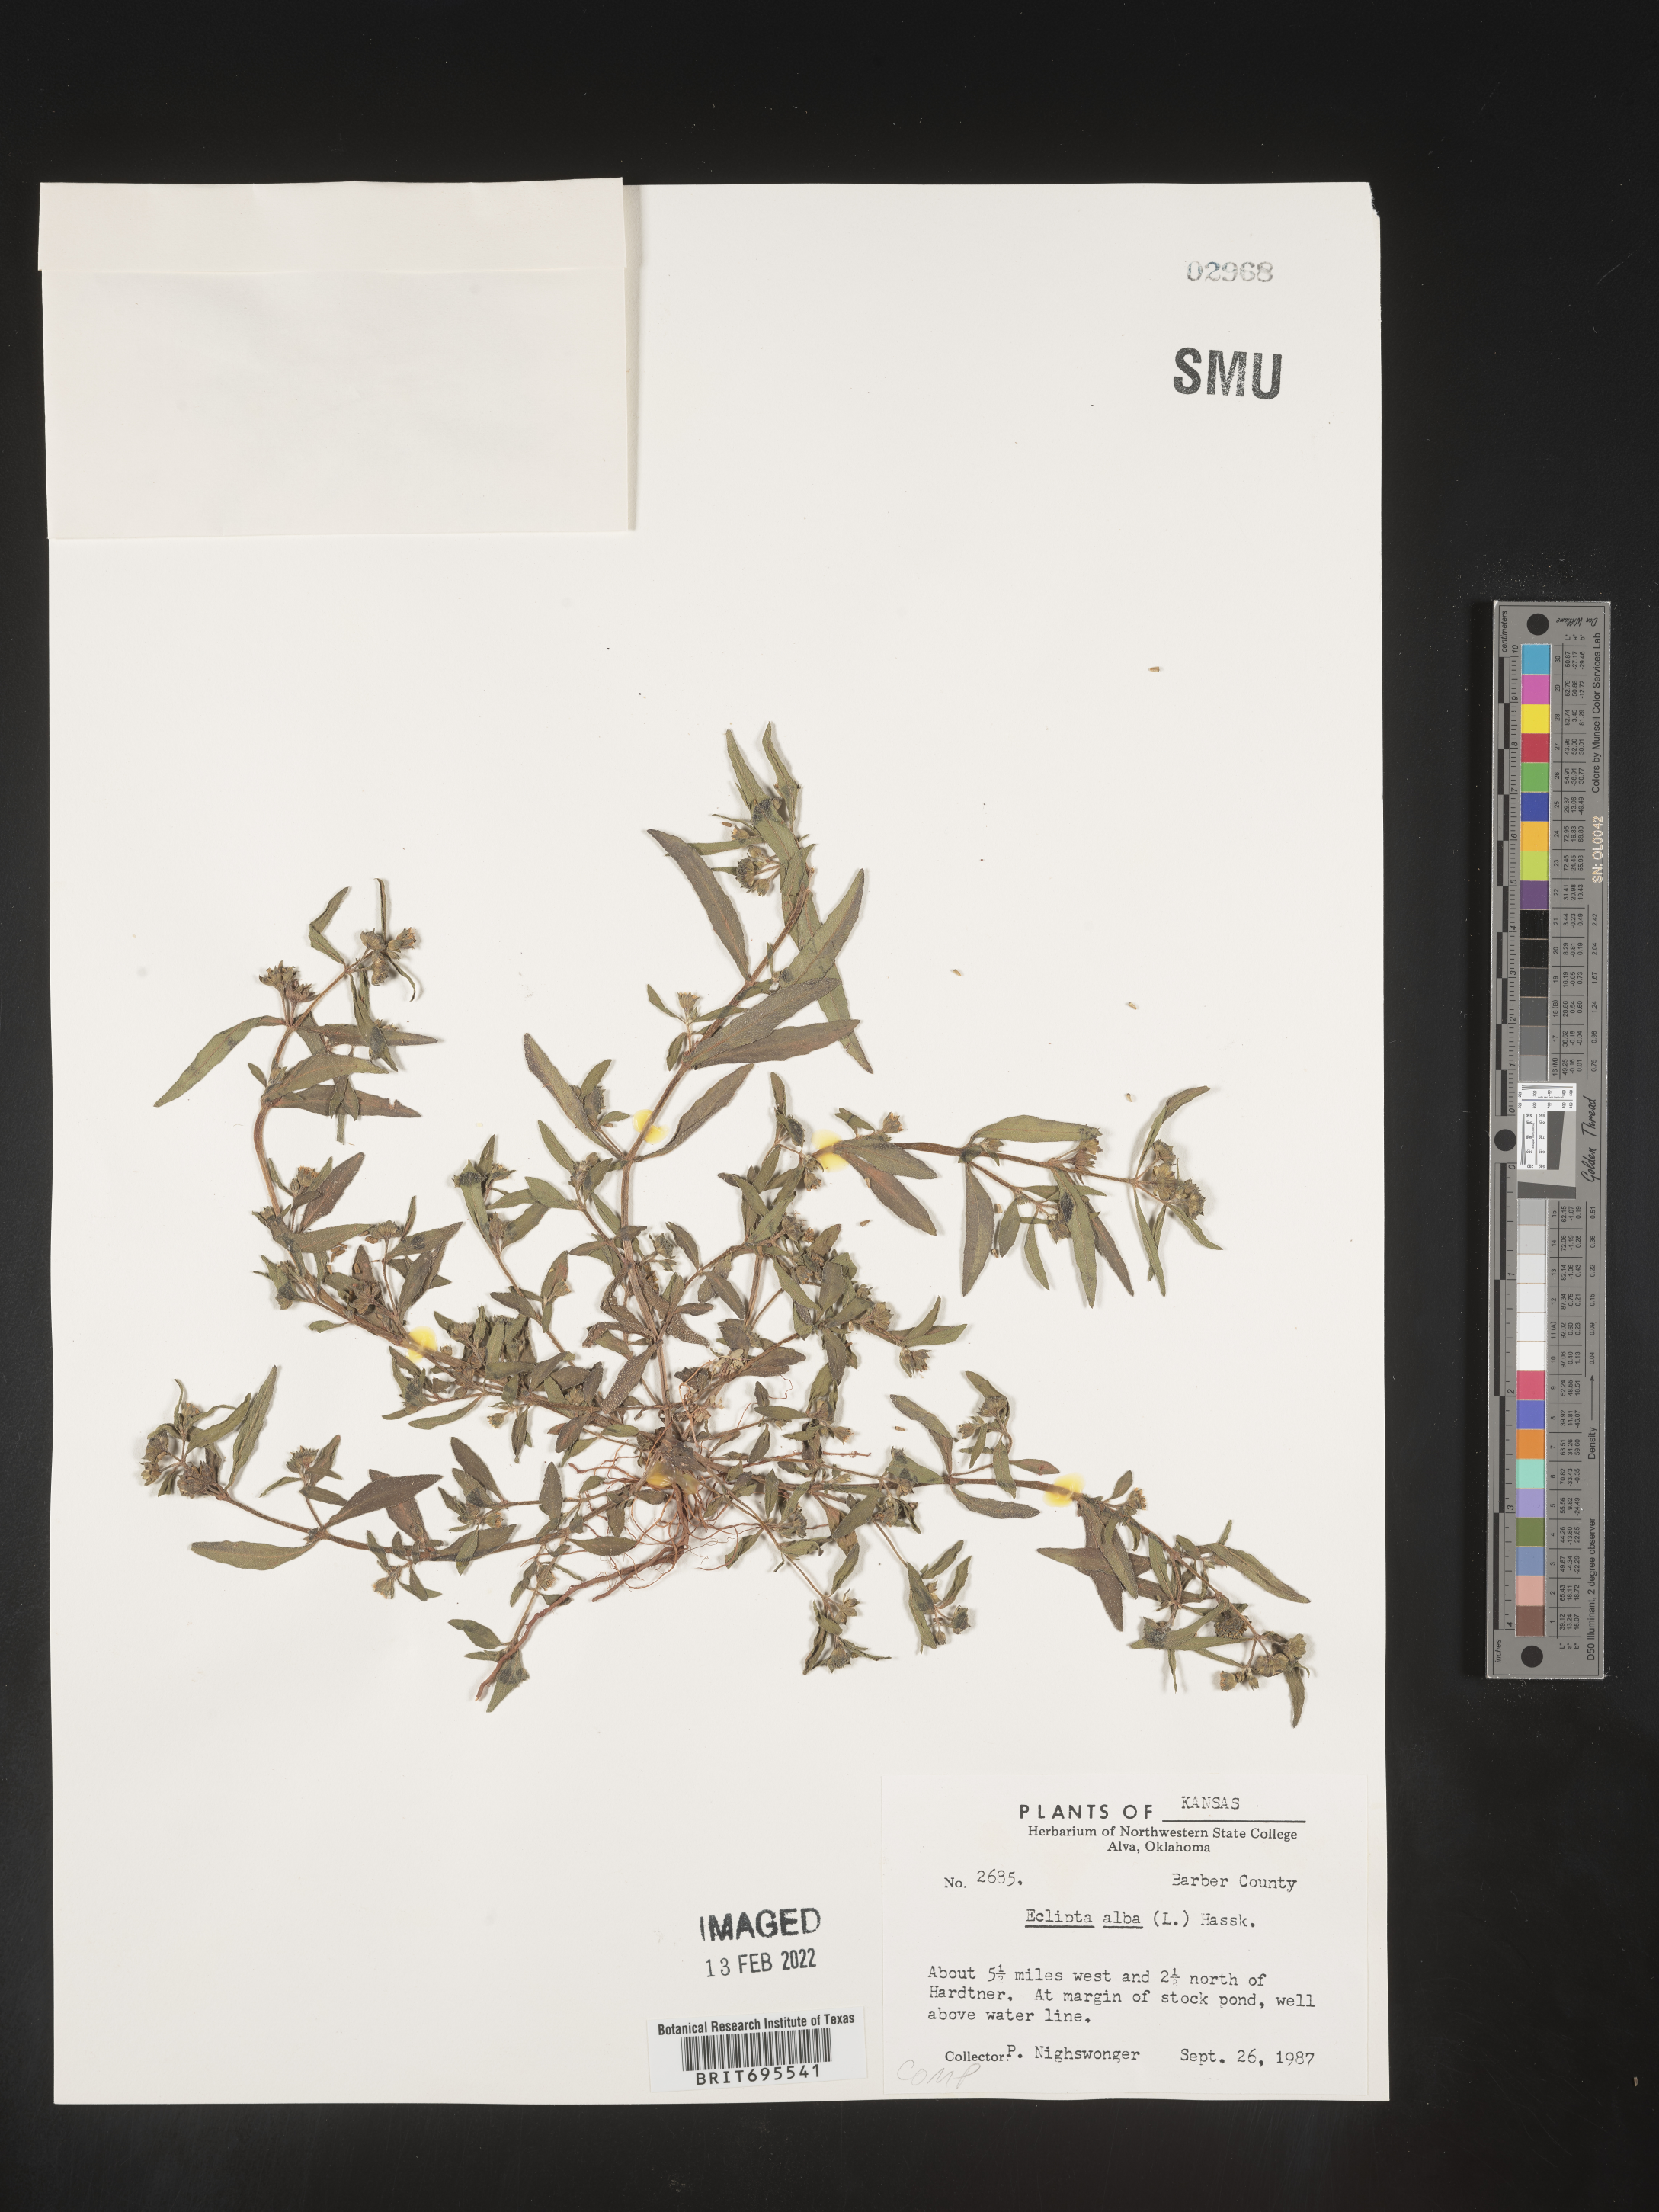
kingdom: Plantae
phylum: Tracheophyta
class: Magnoliopsida
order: Asterales
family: Asteraceae
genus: Eclipta
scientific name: Eclipta alba
